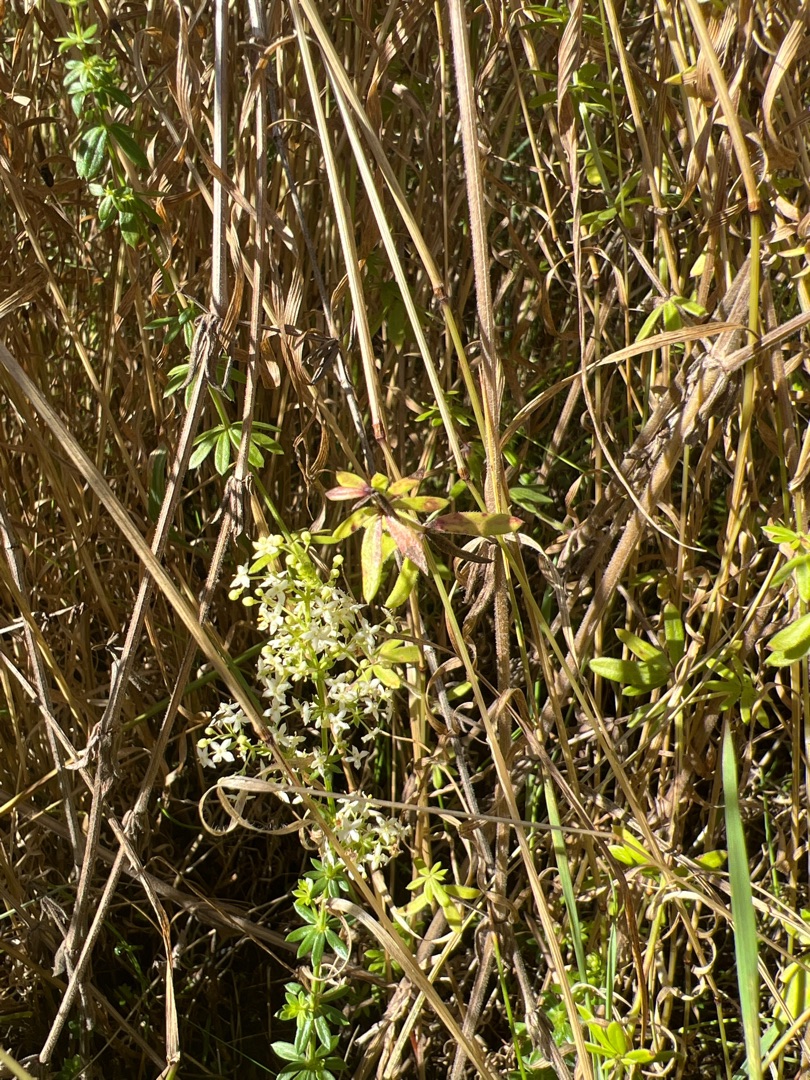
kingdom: Plantae
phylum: Tracheophyta
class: Magnoliopsida
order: Gentianales
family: Rubiaceae
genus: Galium
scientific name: Galium mollugo
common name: Hvid snerre
